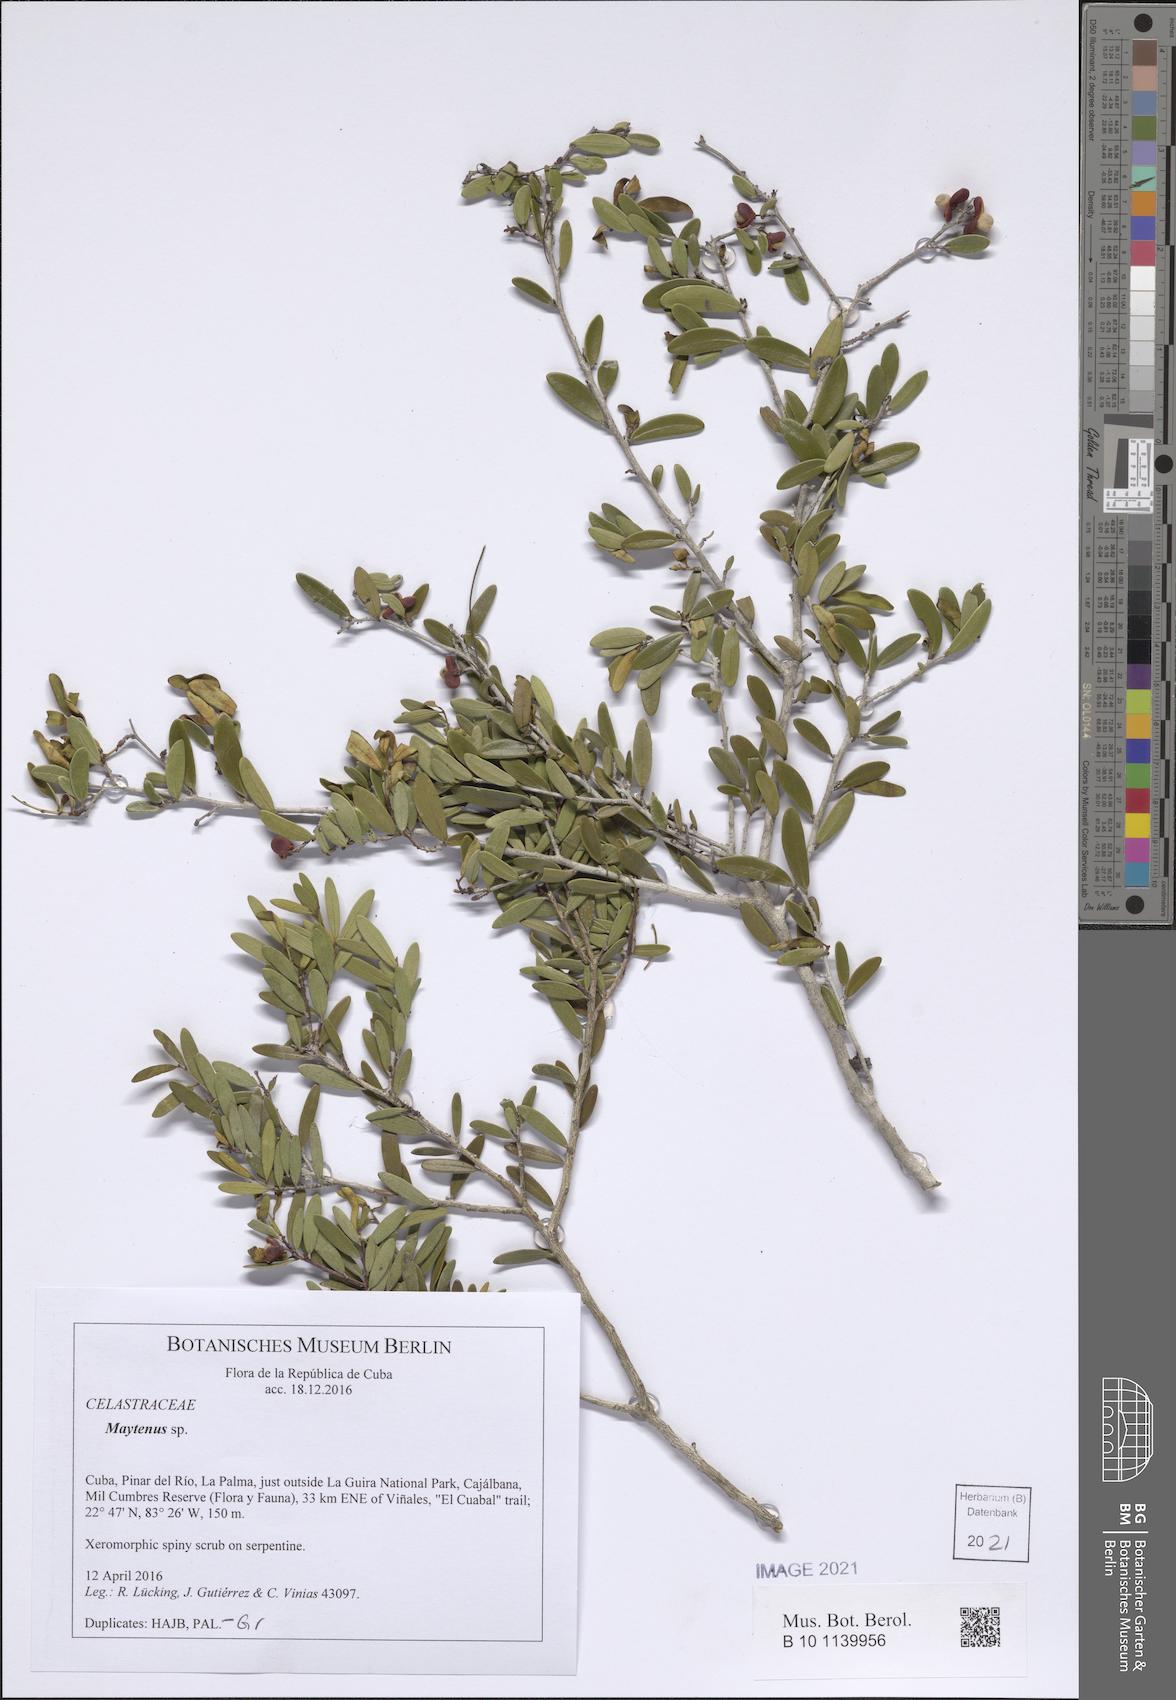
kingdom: Plantae
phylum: Tracheophyta
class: Magnoliopsida
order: Celastrales
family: Celastraceae
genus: Maytenus
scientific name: Maytenus
